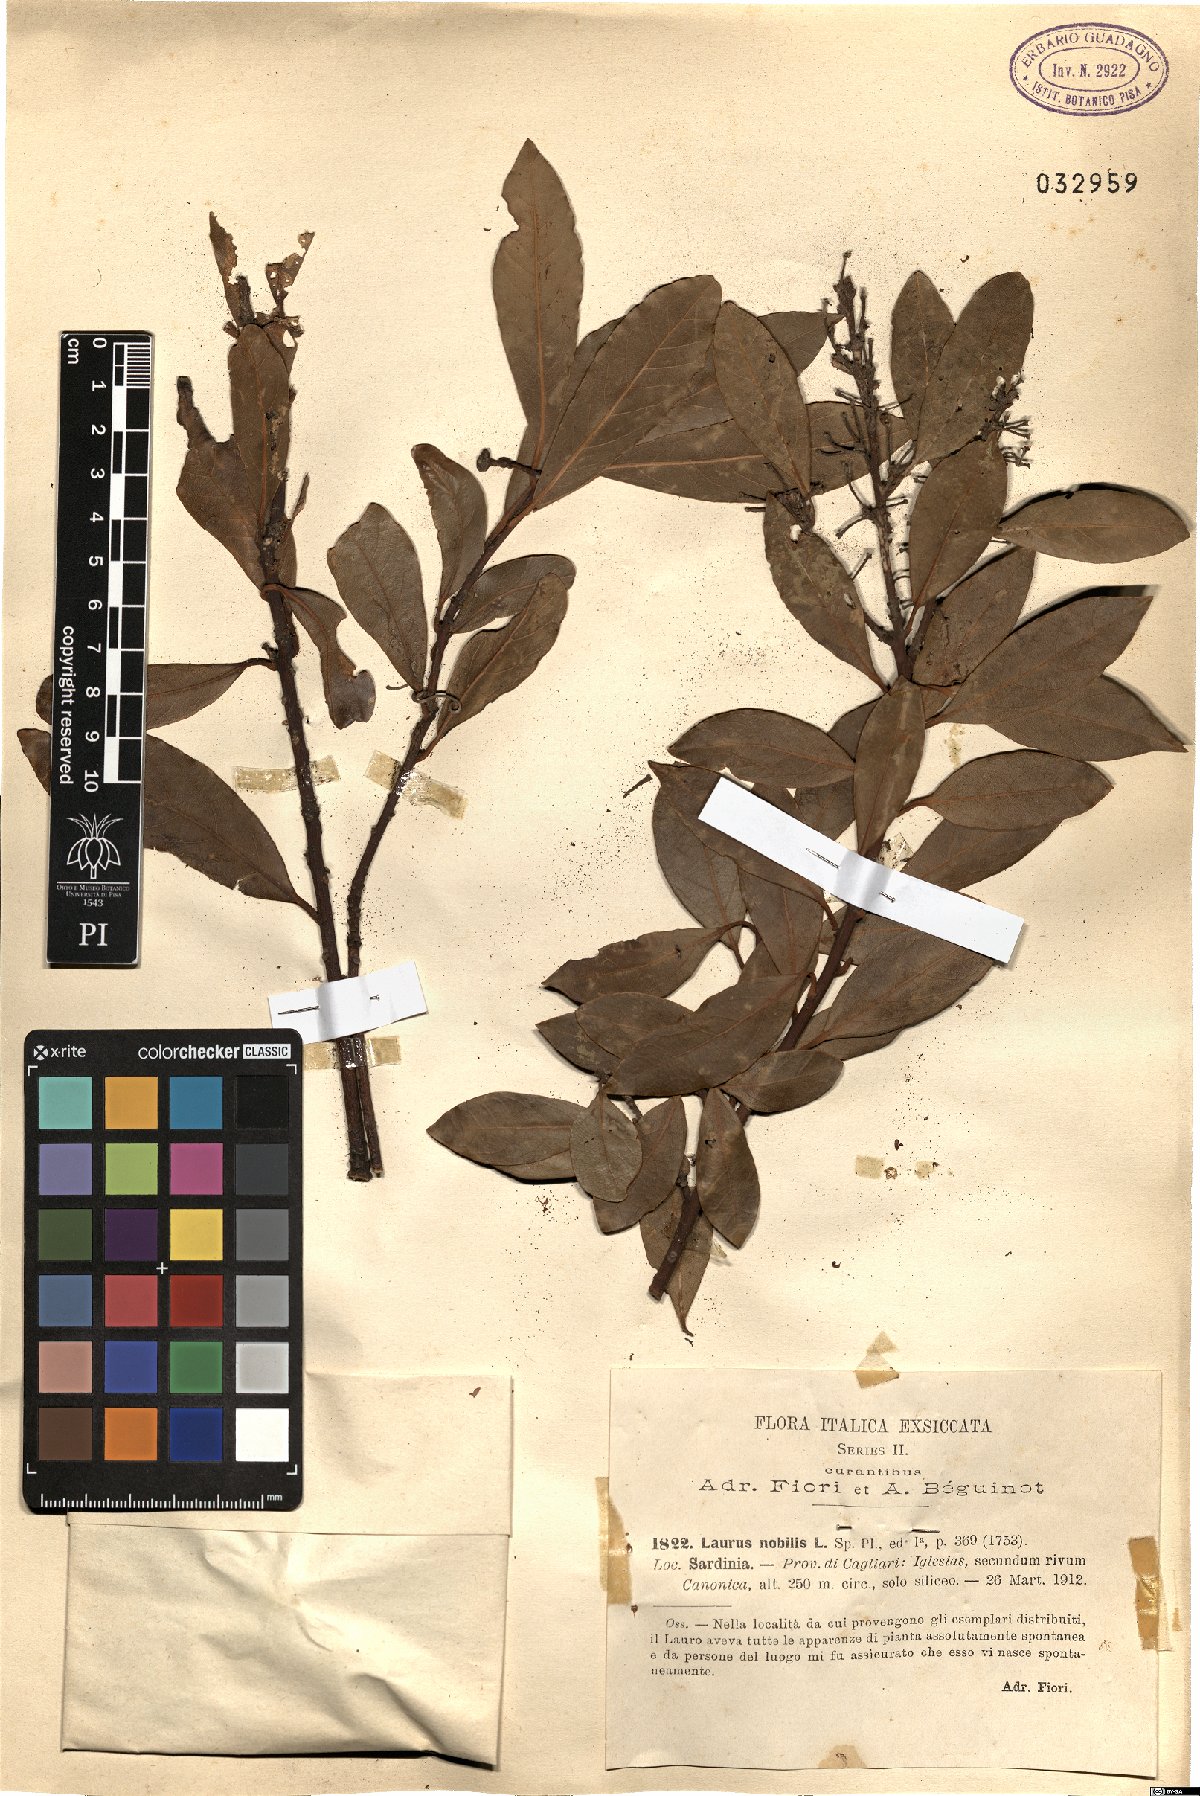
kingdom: Plantae
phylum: Tracheophyta
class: Magnoliopsida
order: Laurales
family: Lauraceae
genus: Laurus
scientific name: Laurus nobilis
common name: Bay
